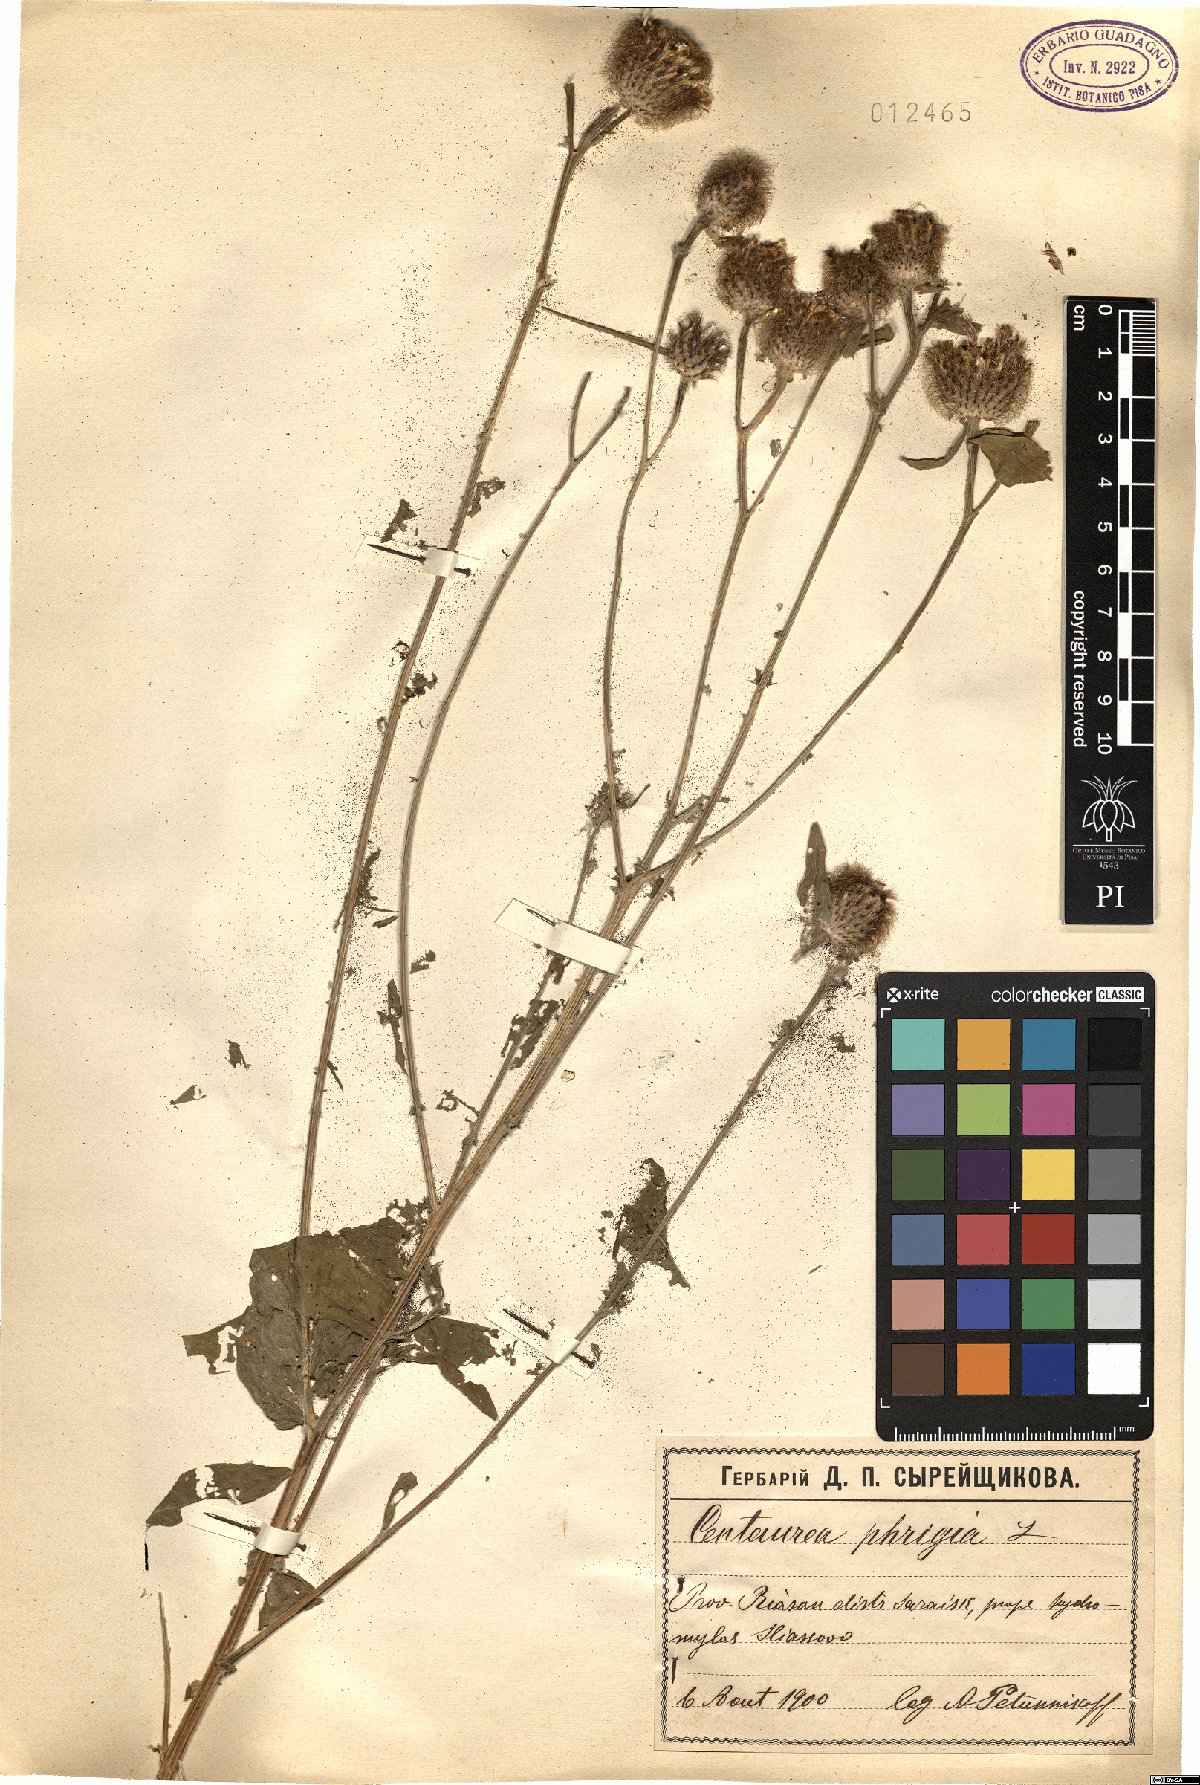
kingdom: Plantae
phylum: Tracheophyta
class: Magnoliopsida
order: Asterales
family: Asteraceae
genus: Centaurea
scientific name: Centaurea phrygia
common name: Wig knapweed
